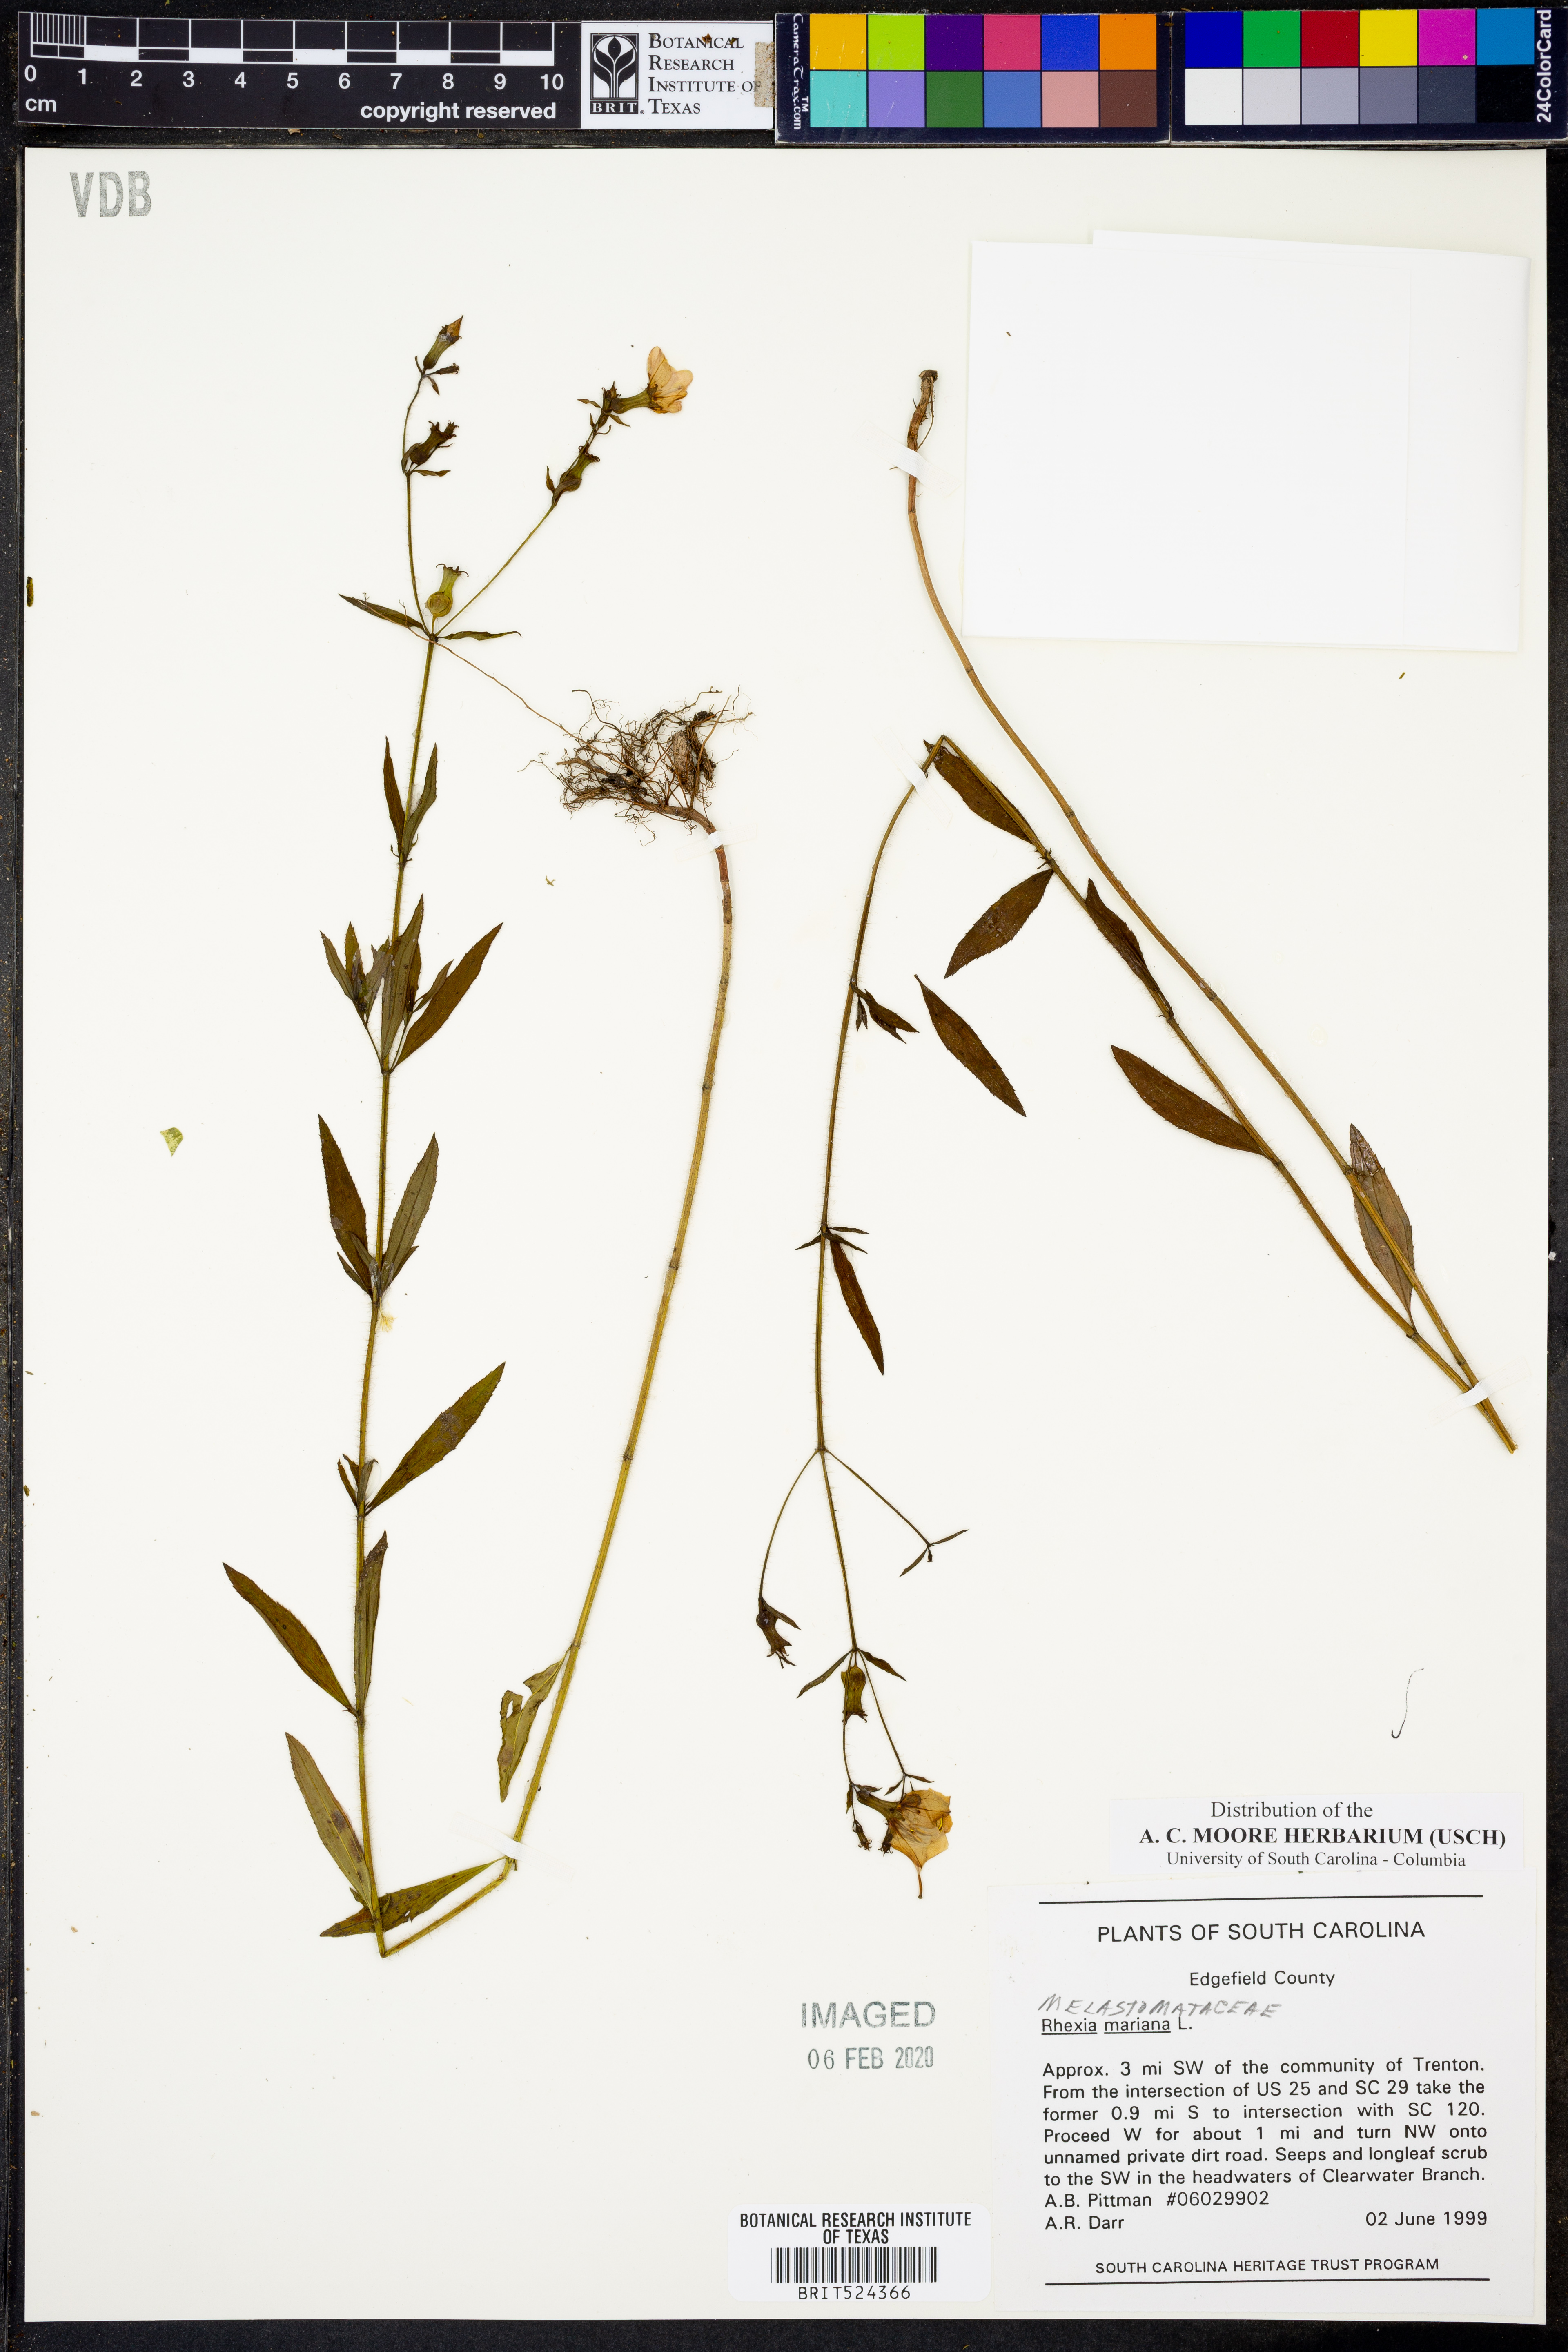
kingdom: Plantae
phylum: Tracheophyta
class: Magnoliopsida
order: Myrtales
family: Melastomataceae
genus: Rhexia
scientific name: Rhexia mariana
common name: Dull meadow-pitcher
